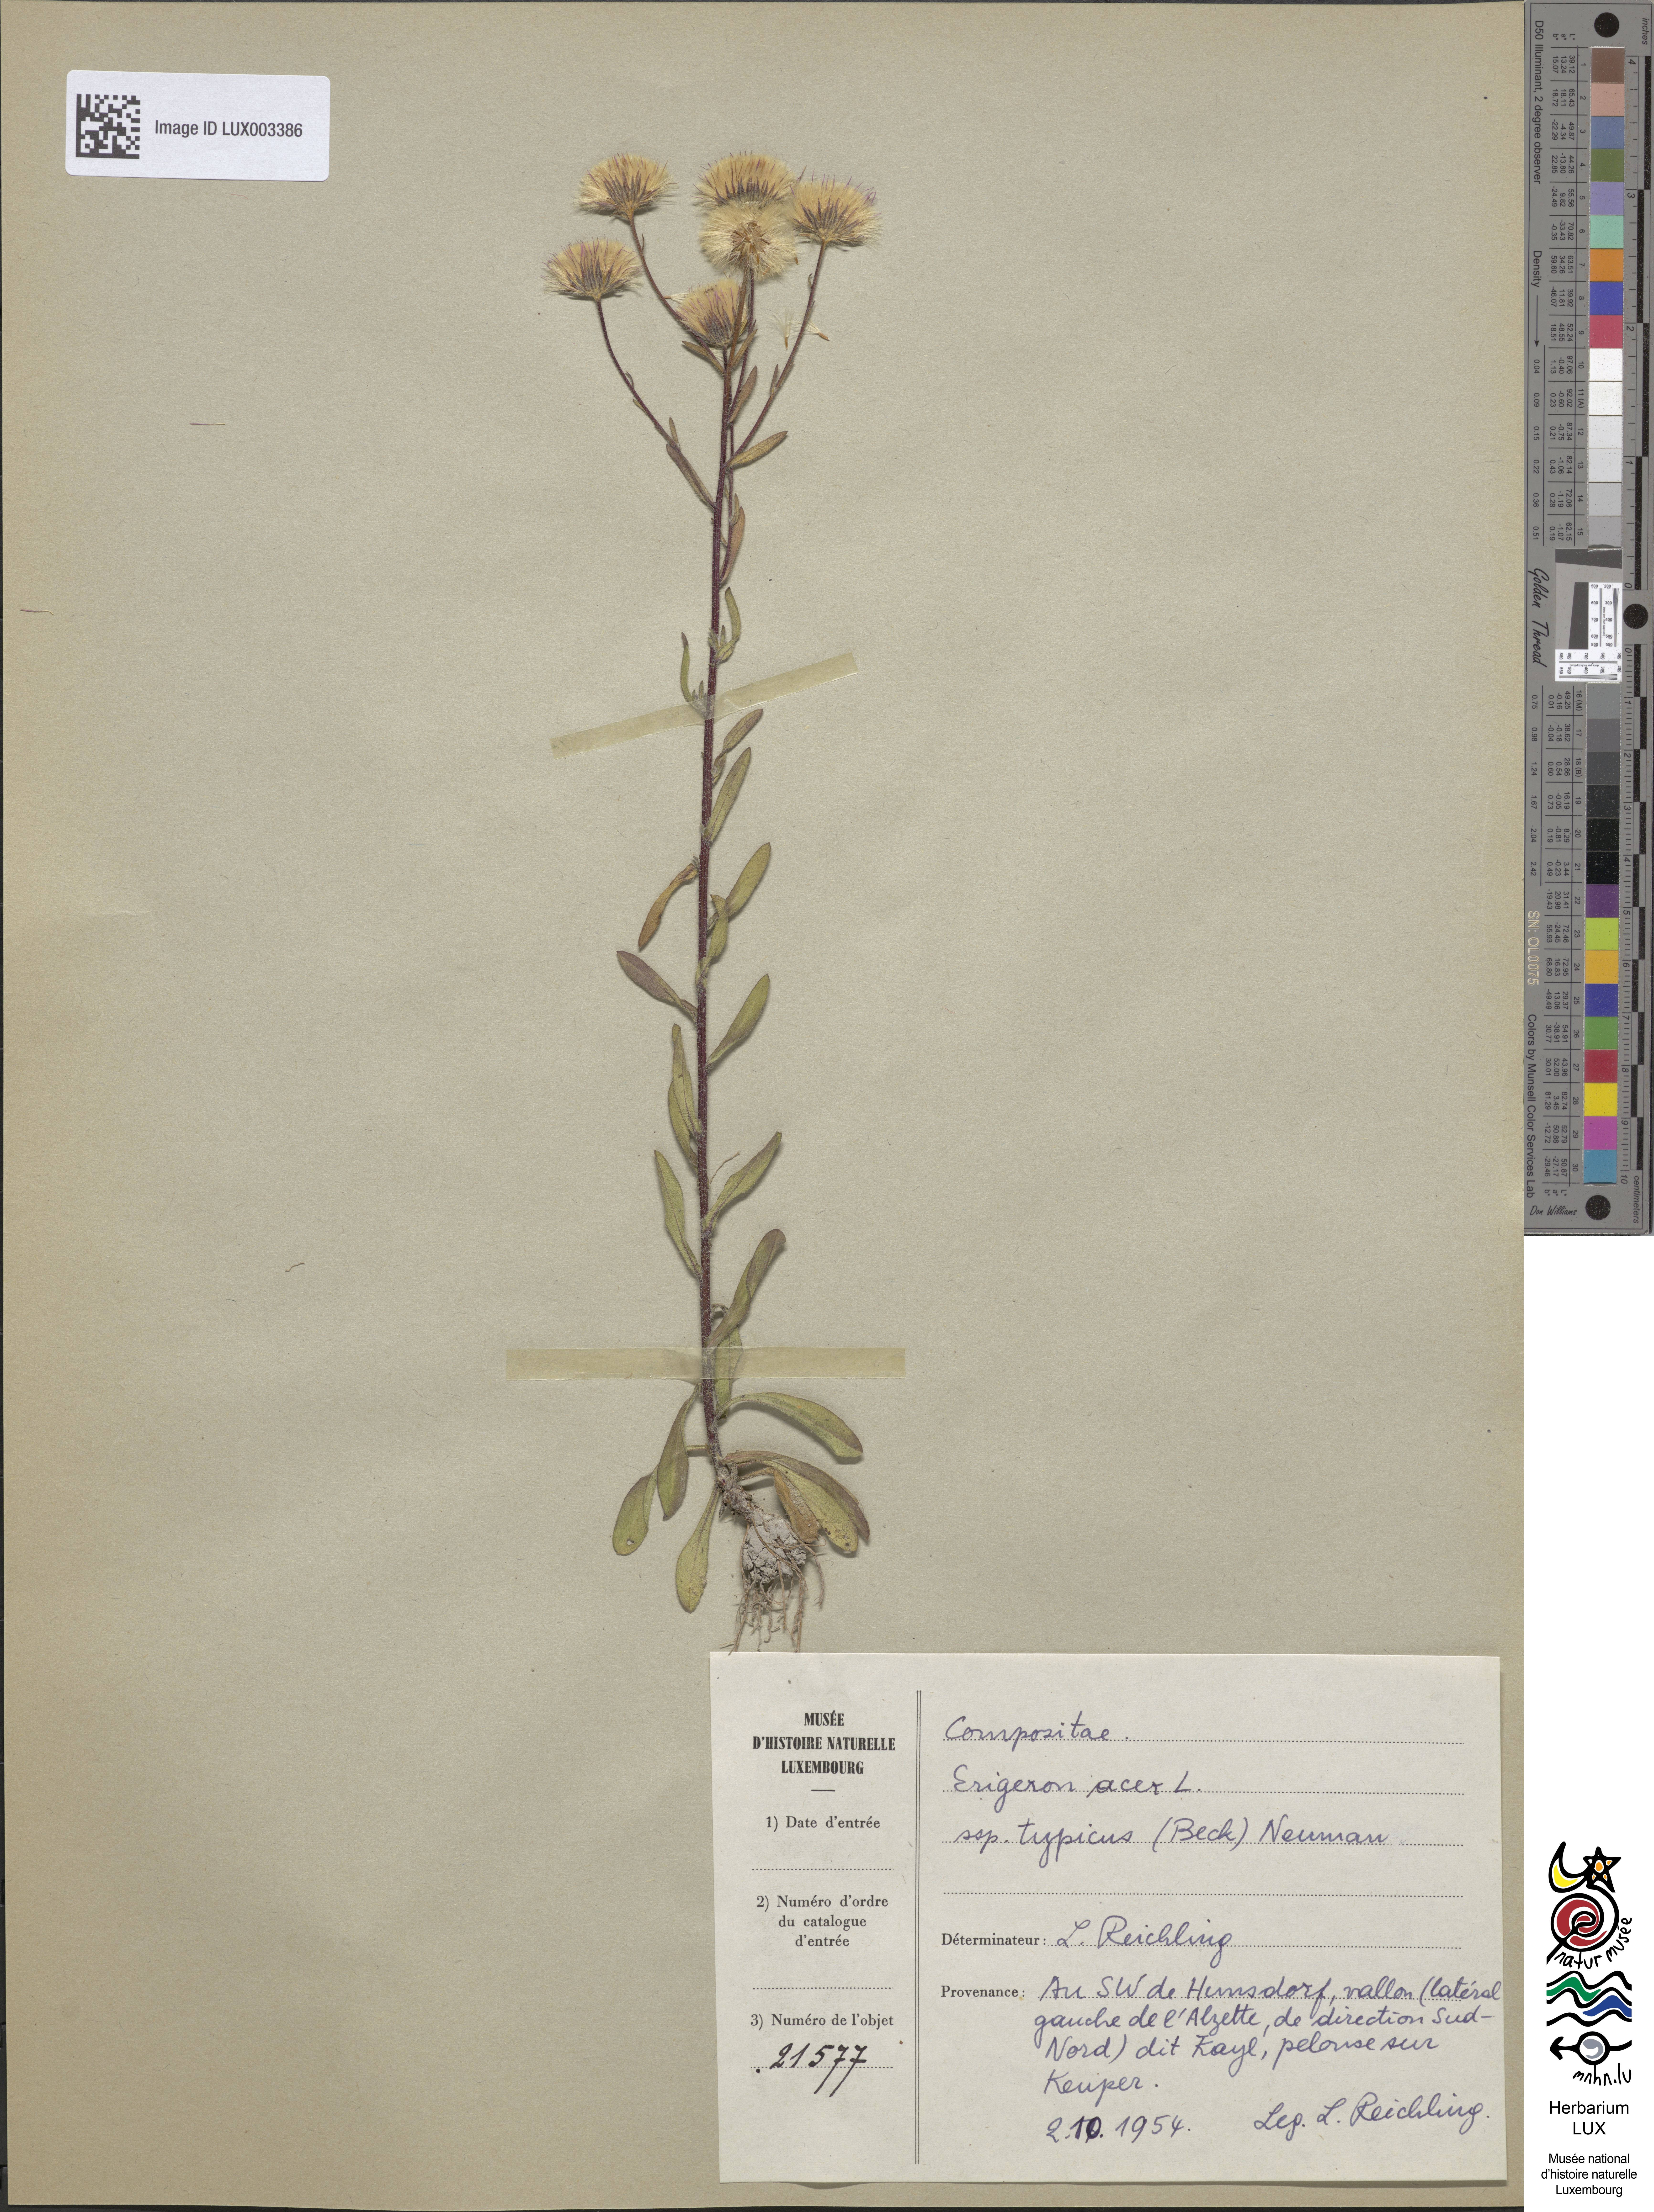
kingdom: Plantae
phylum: Tracheophyta
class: Magnoliopsida
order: Asterales
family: Asteraceae
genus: Erigeron
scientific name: Erigeron acris
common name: Blue fleabane
